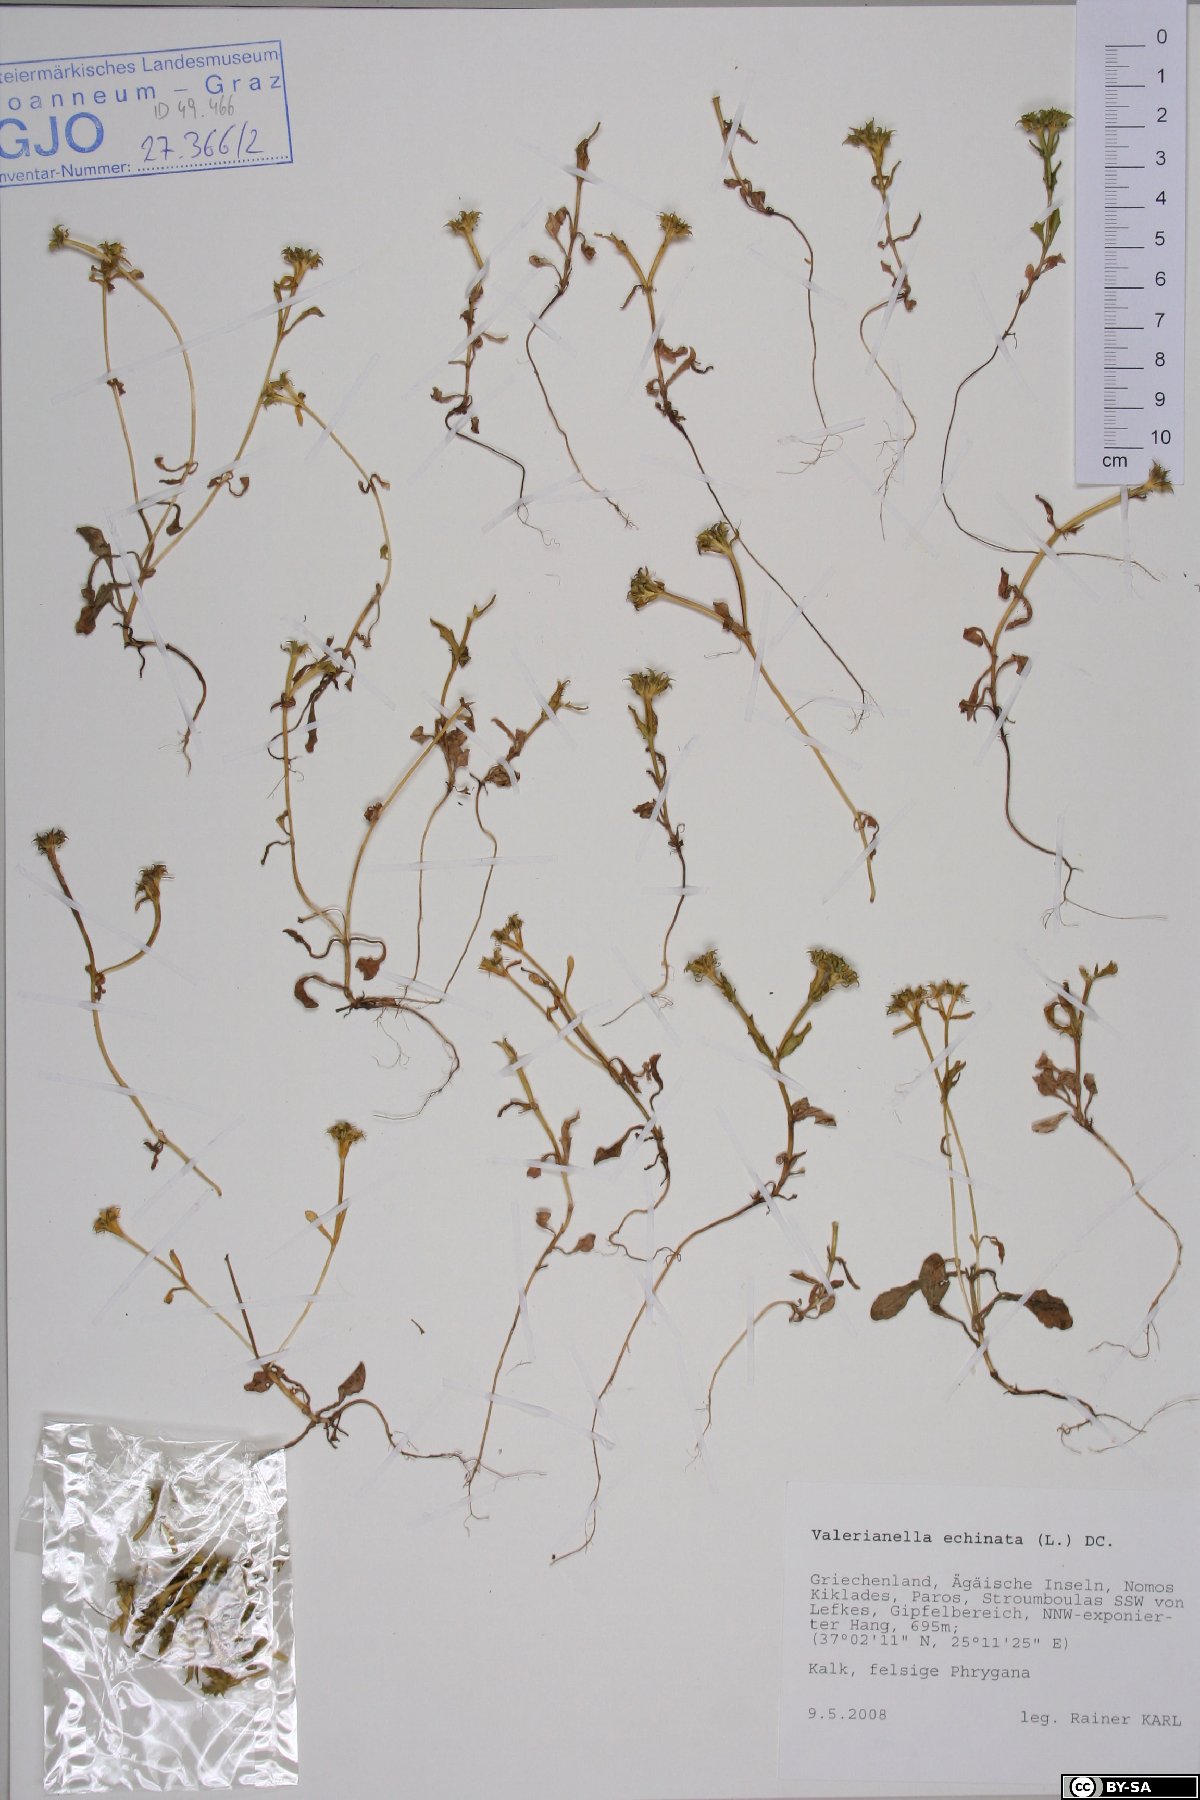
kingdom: Plantae
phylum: Tracheophyta
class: Magnoliopsida
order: Dipsacales
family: Caprifoliaceae
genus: Valerianella
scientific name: Valerianella echinata
